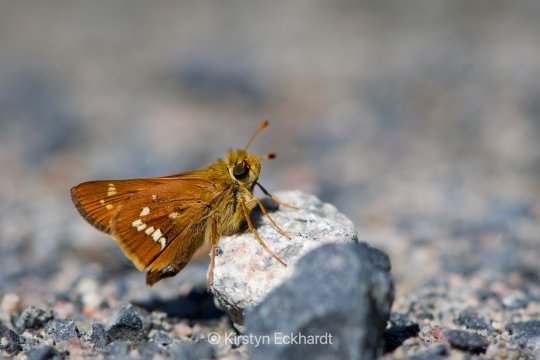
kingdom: Animalia
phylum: Arthropoda
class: Insecta
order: Lepidoptera
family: Hesperiidae
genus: Hesperia
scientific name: Hesperia leonardus
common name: Leonard's Skipper
